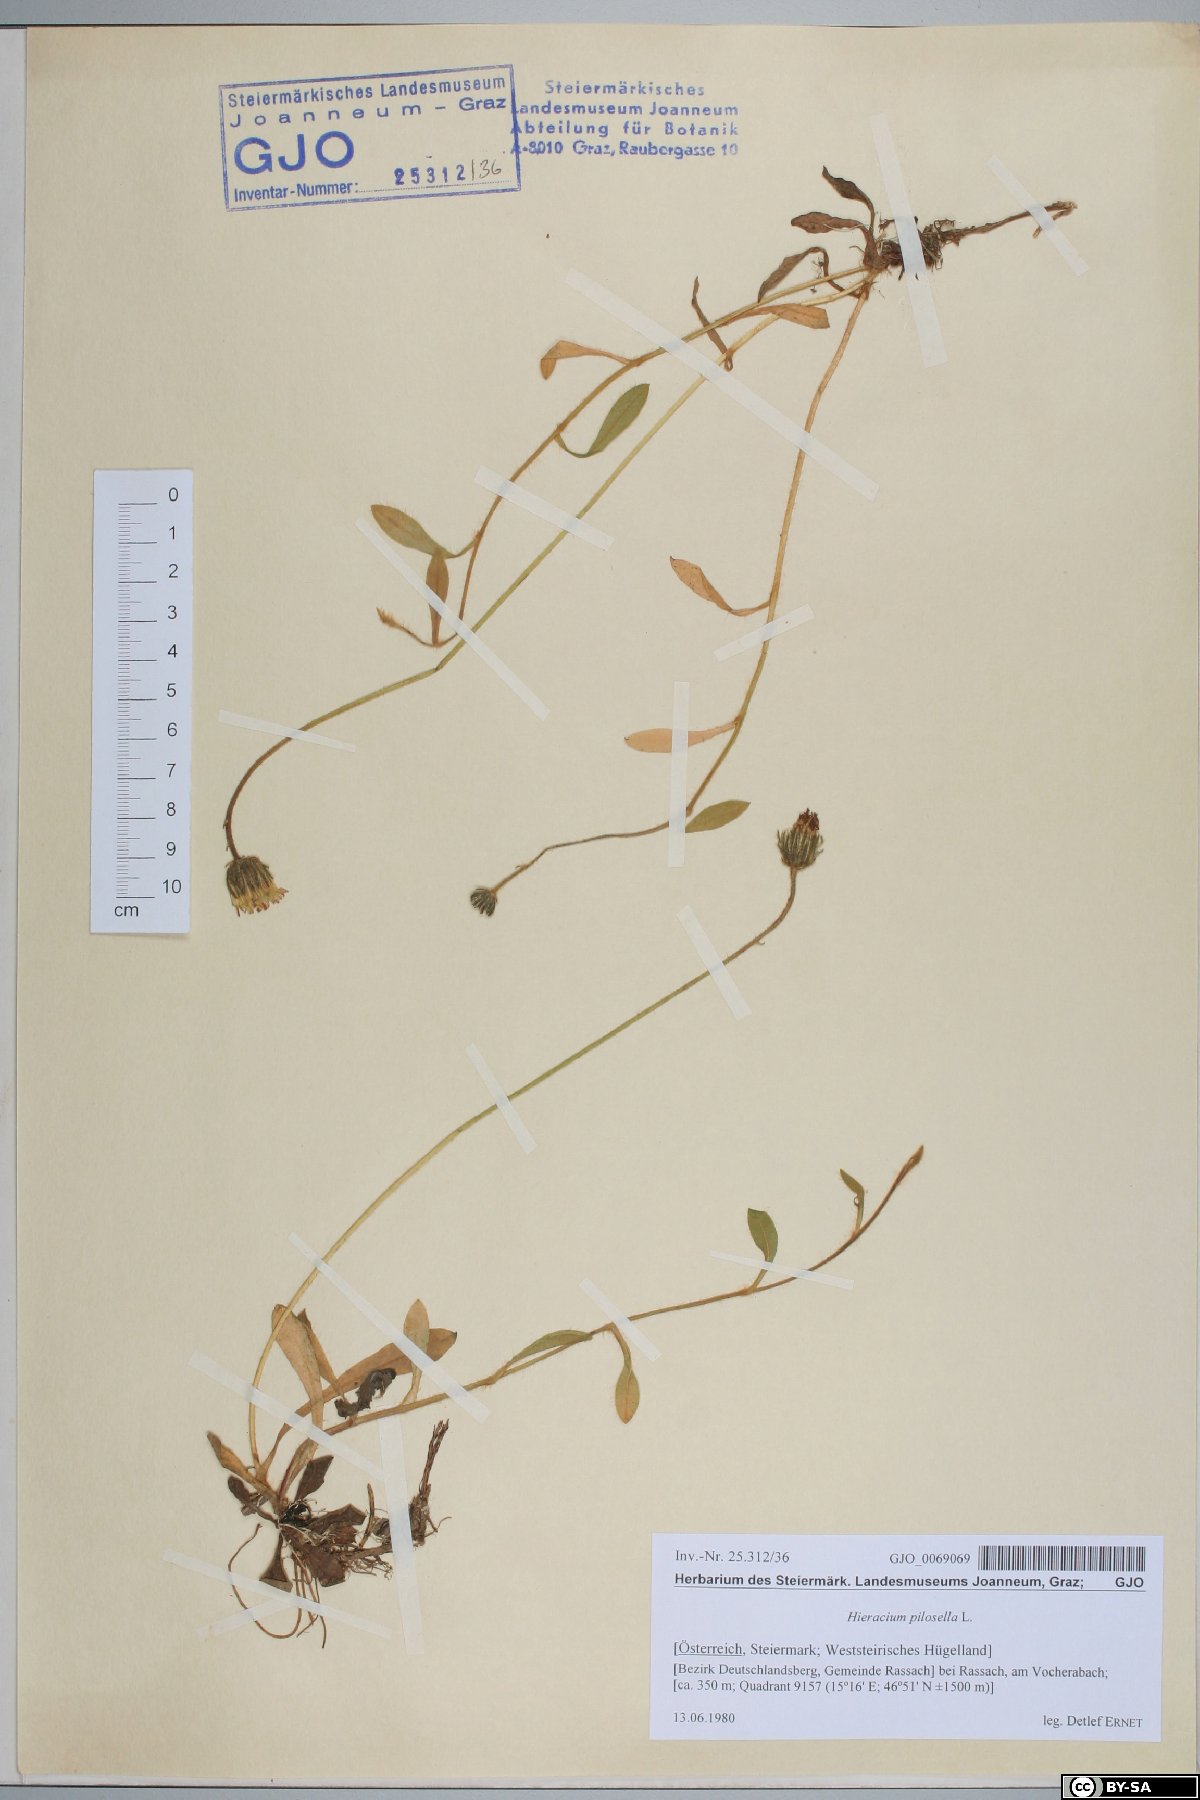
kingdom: Plantae
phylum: Tracheophyta
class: Magnoliopsida
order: Asterales
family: Asteraceae
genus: Pilosella
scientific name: Pilosella officinarum
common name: Mouse-ear hawkweed
